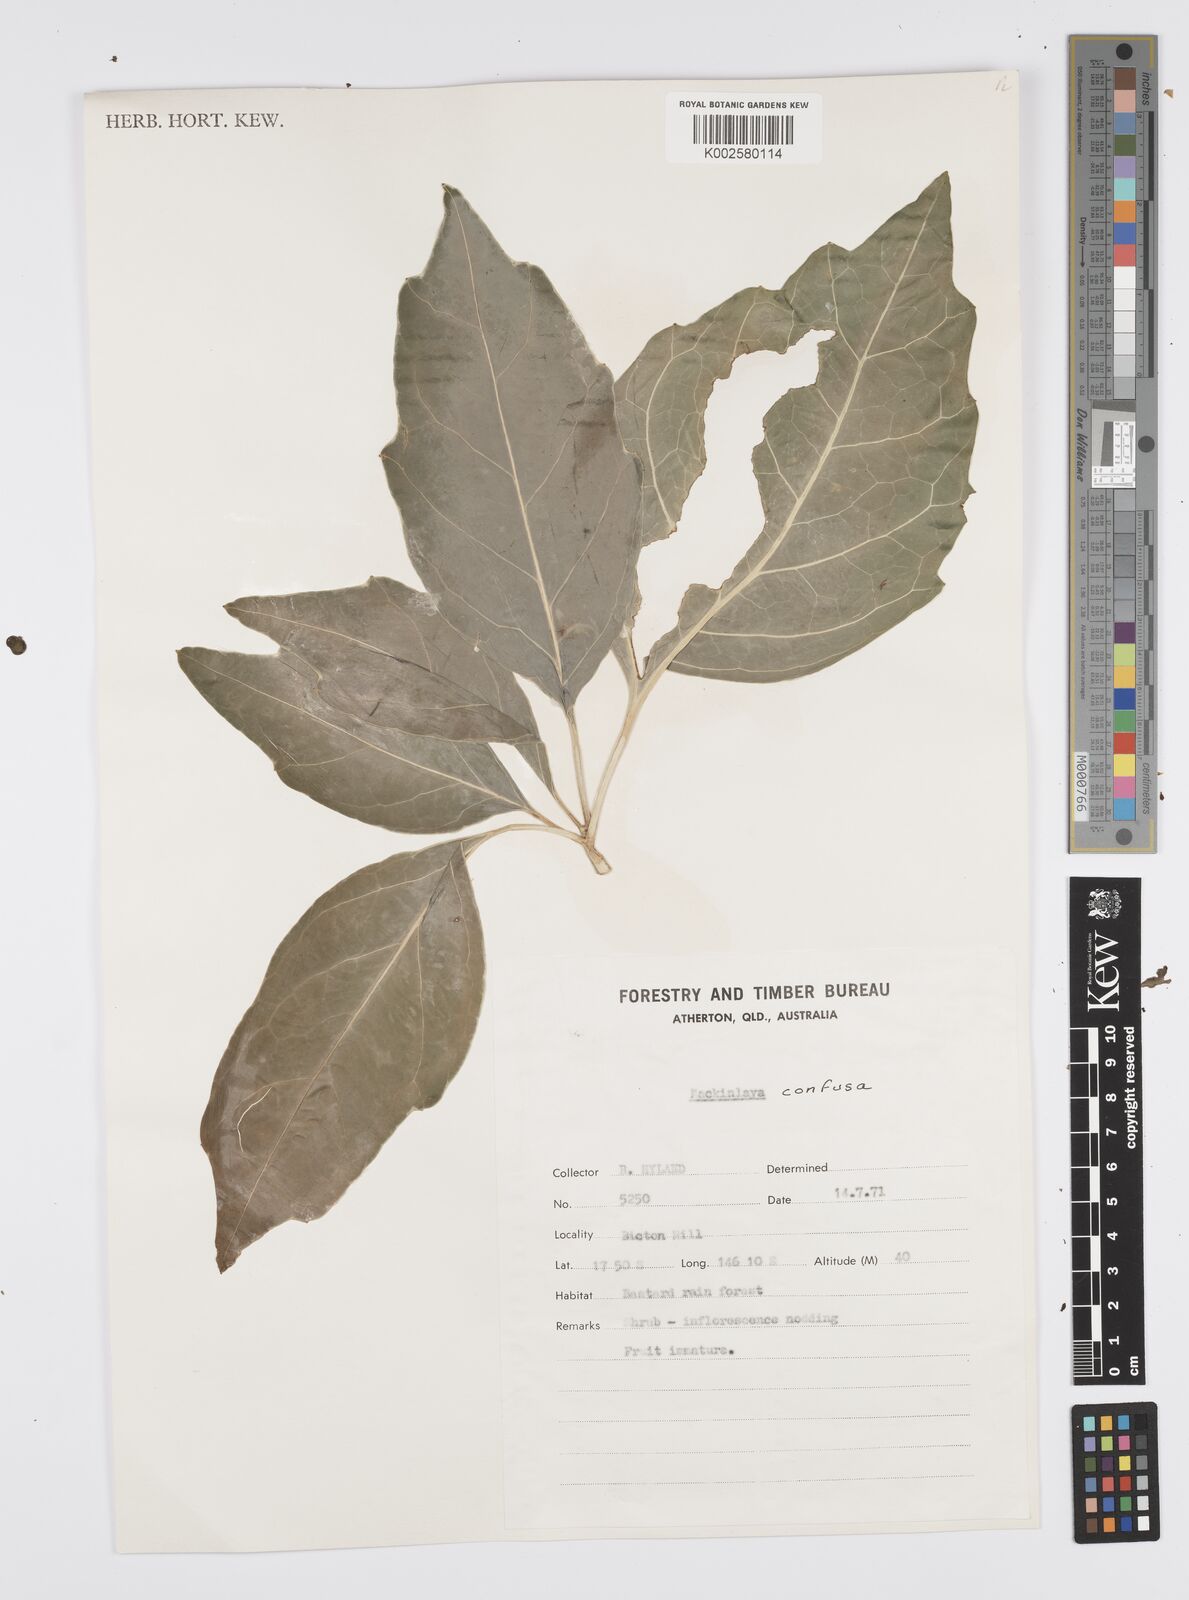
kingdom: Plantae
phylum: Tracheophyta
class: Magnoliopsida
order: Apiales
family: Apiaceae
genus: Mackinlaya
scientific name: Mackinlaya confusa
